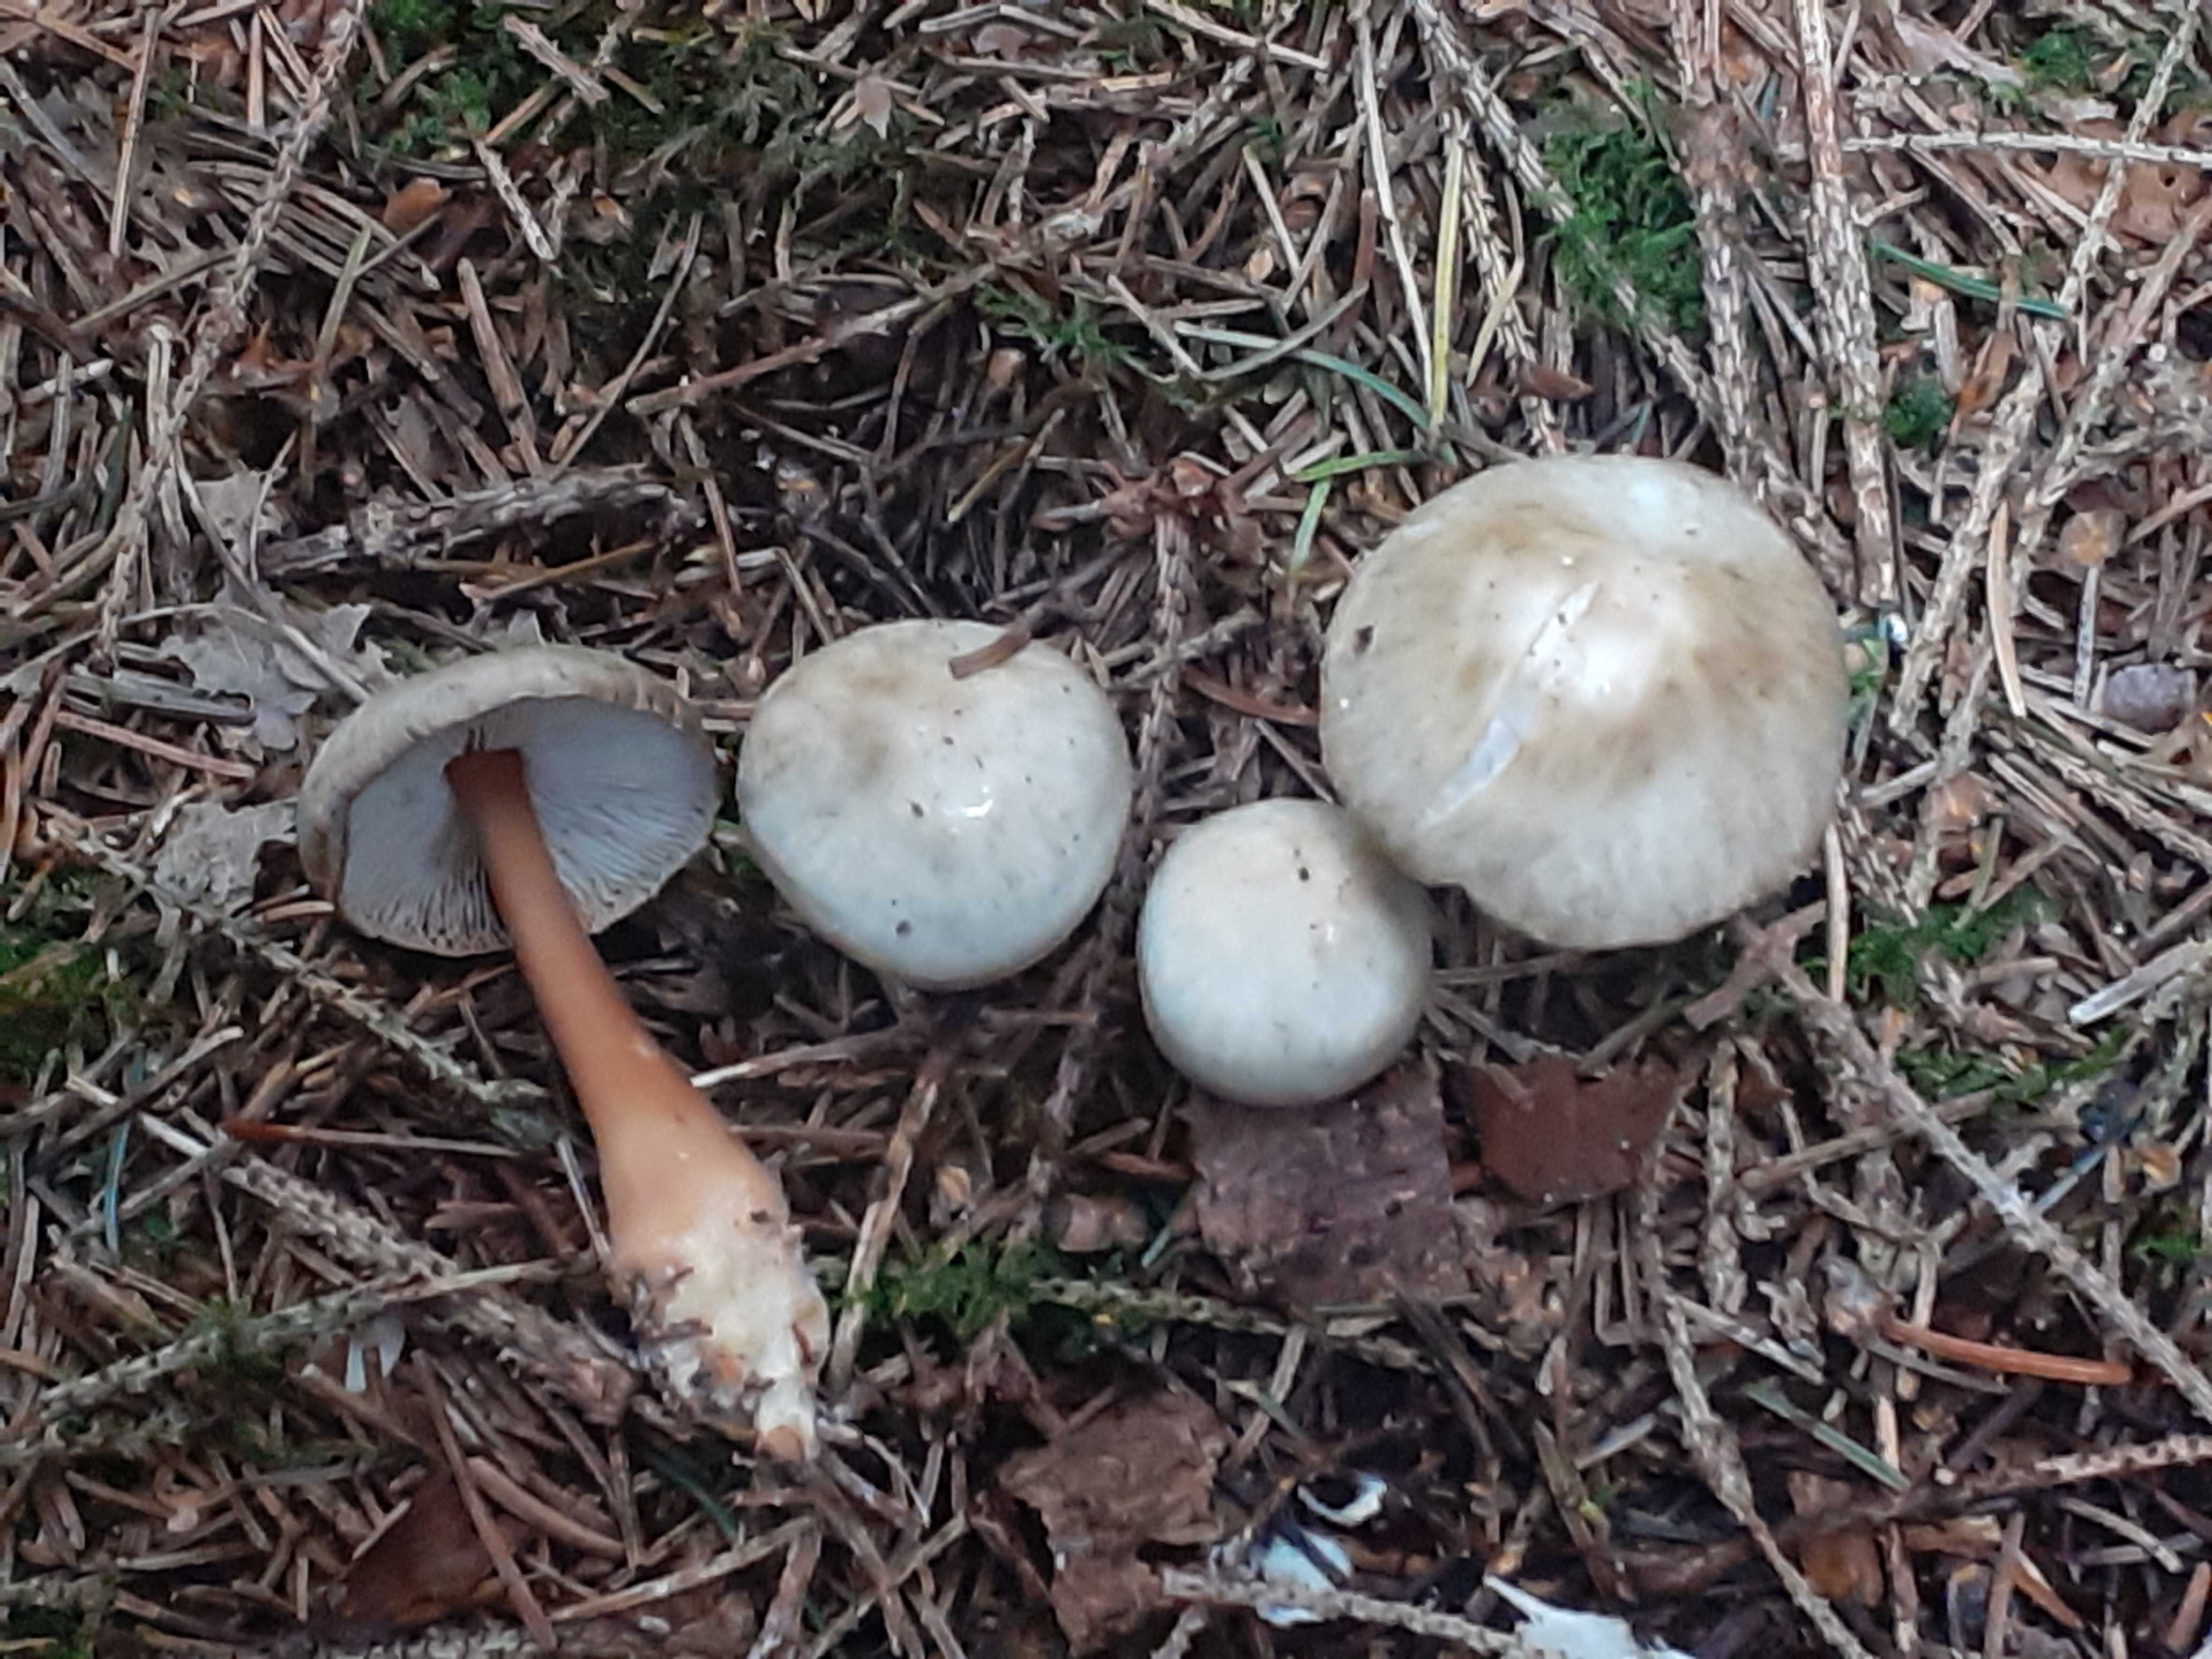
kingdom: Fungi
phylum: Basidiomycota
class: Agaricomycetes
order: Agaricales
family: Omphalotaceae
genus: Rhodocollybia
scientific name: Rhodocollybia asema
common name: horngrå fladhat
